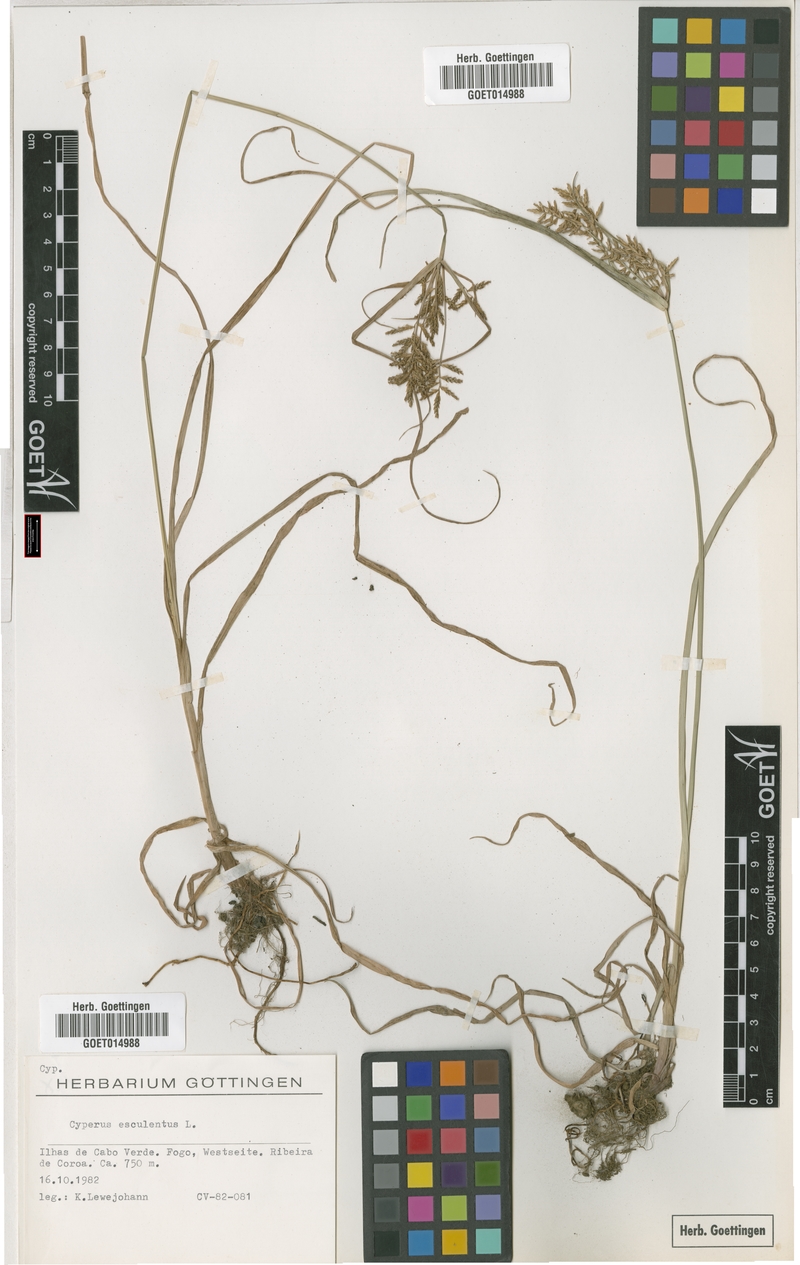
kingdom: Plantae
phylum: Tracheophyta
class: Liliopsida
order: Poales
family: Cyperaceae
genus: Cyperus
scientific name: Cyperus esculentus
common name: Yellow nutsedge
